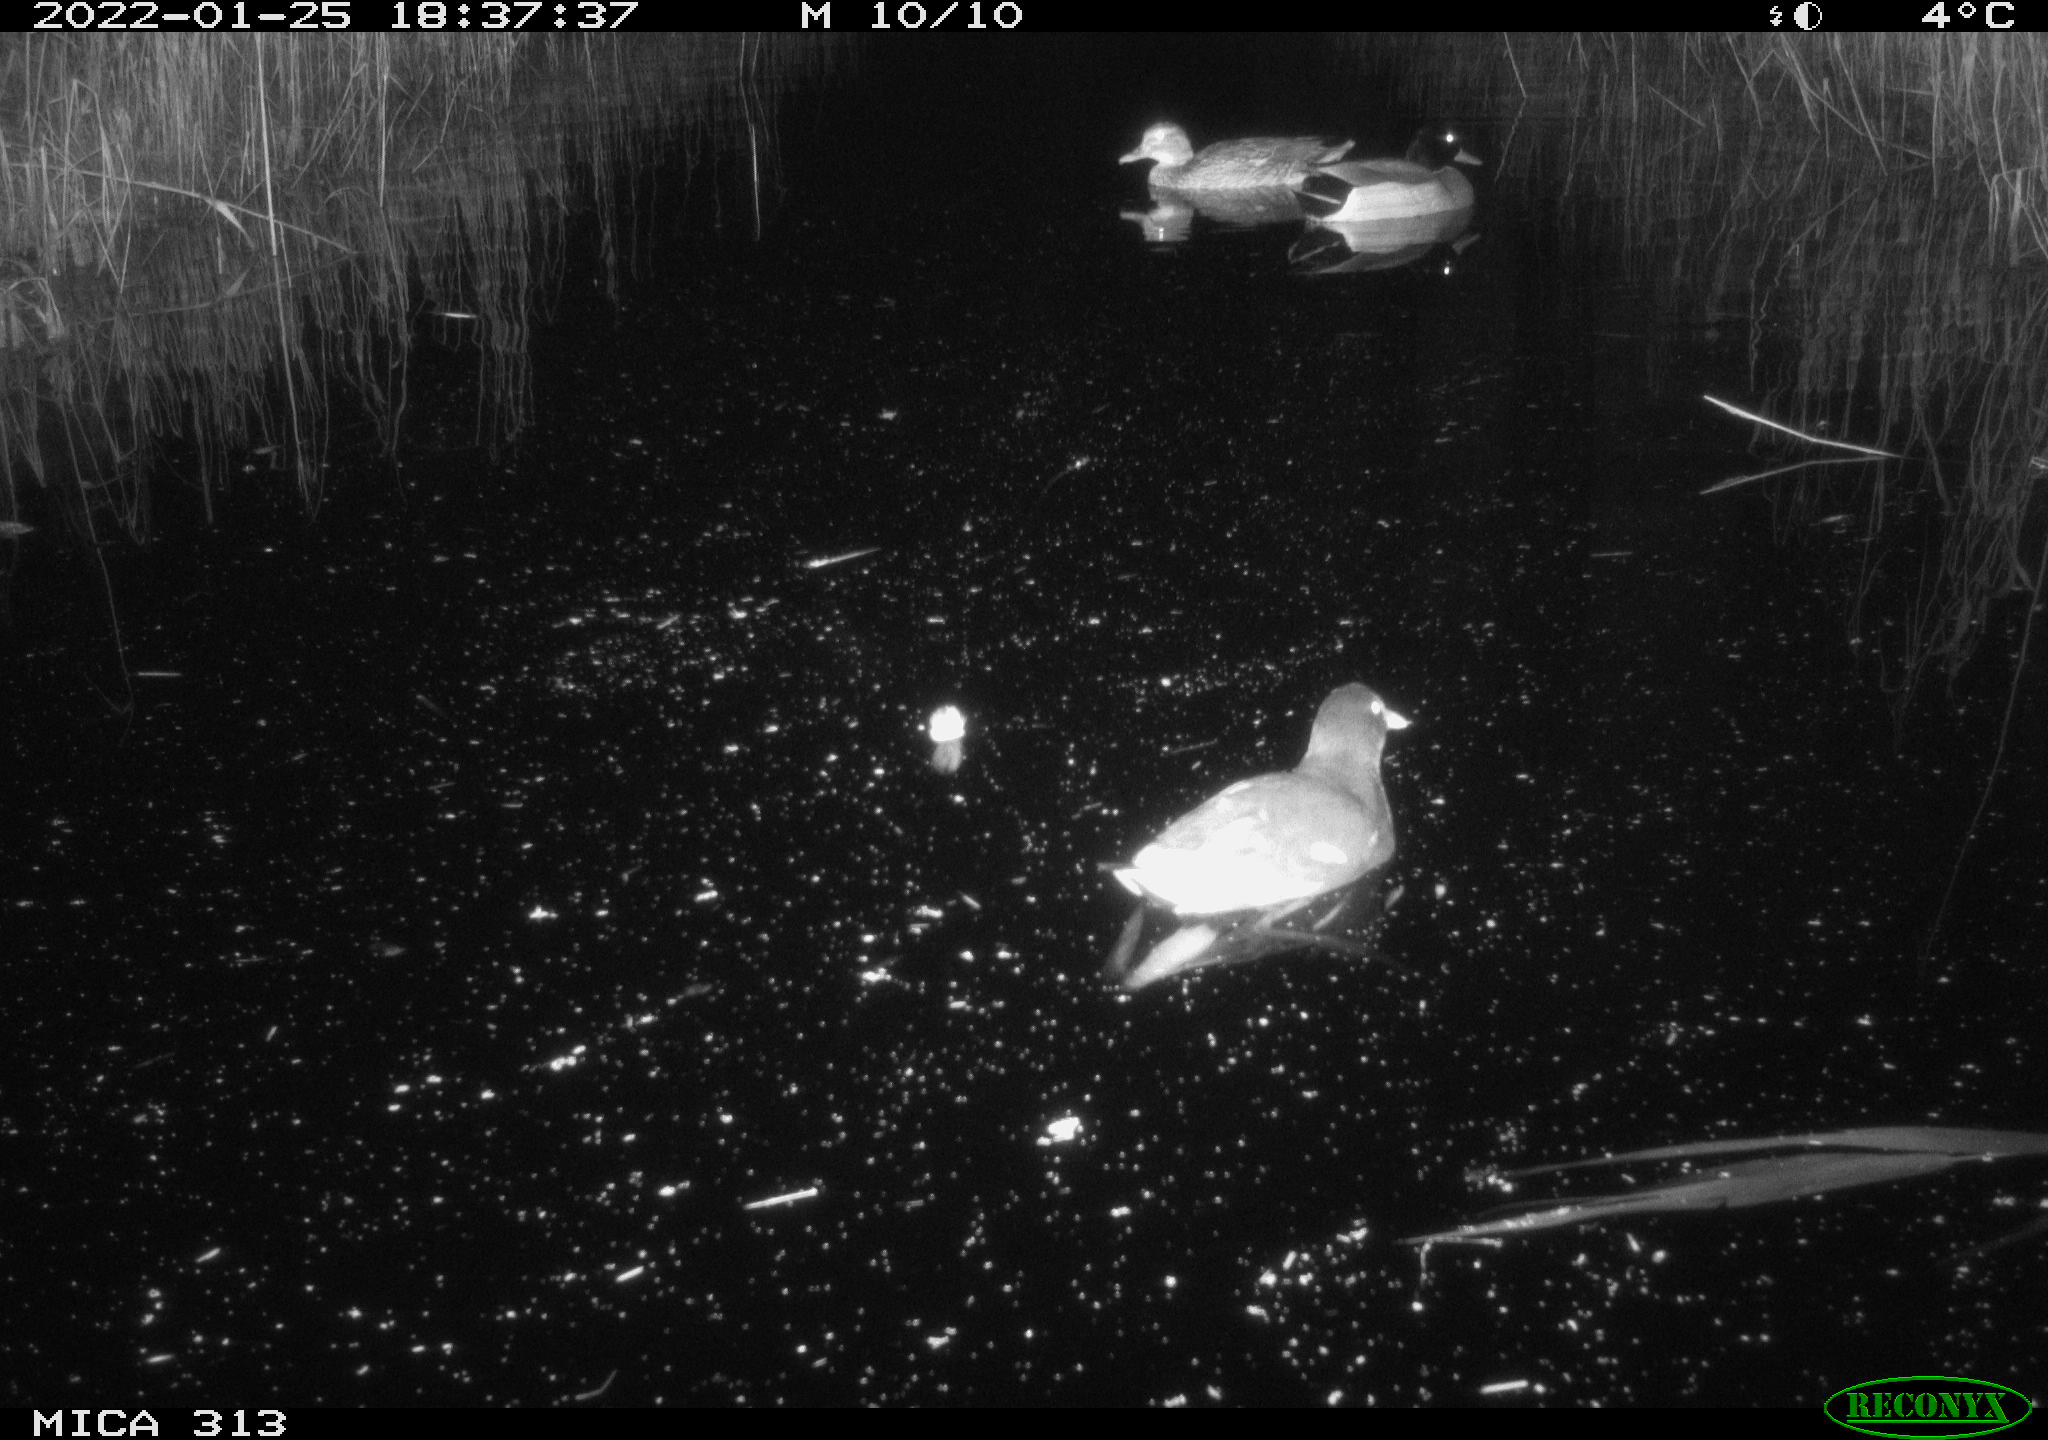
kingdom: Animalia
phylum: Chordata
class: Aves
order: Anseriformes
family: Anatidae
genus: Anas
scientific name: Anas
